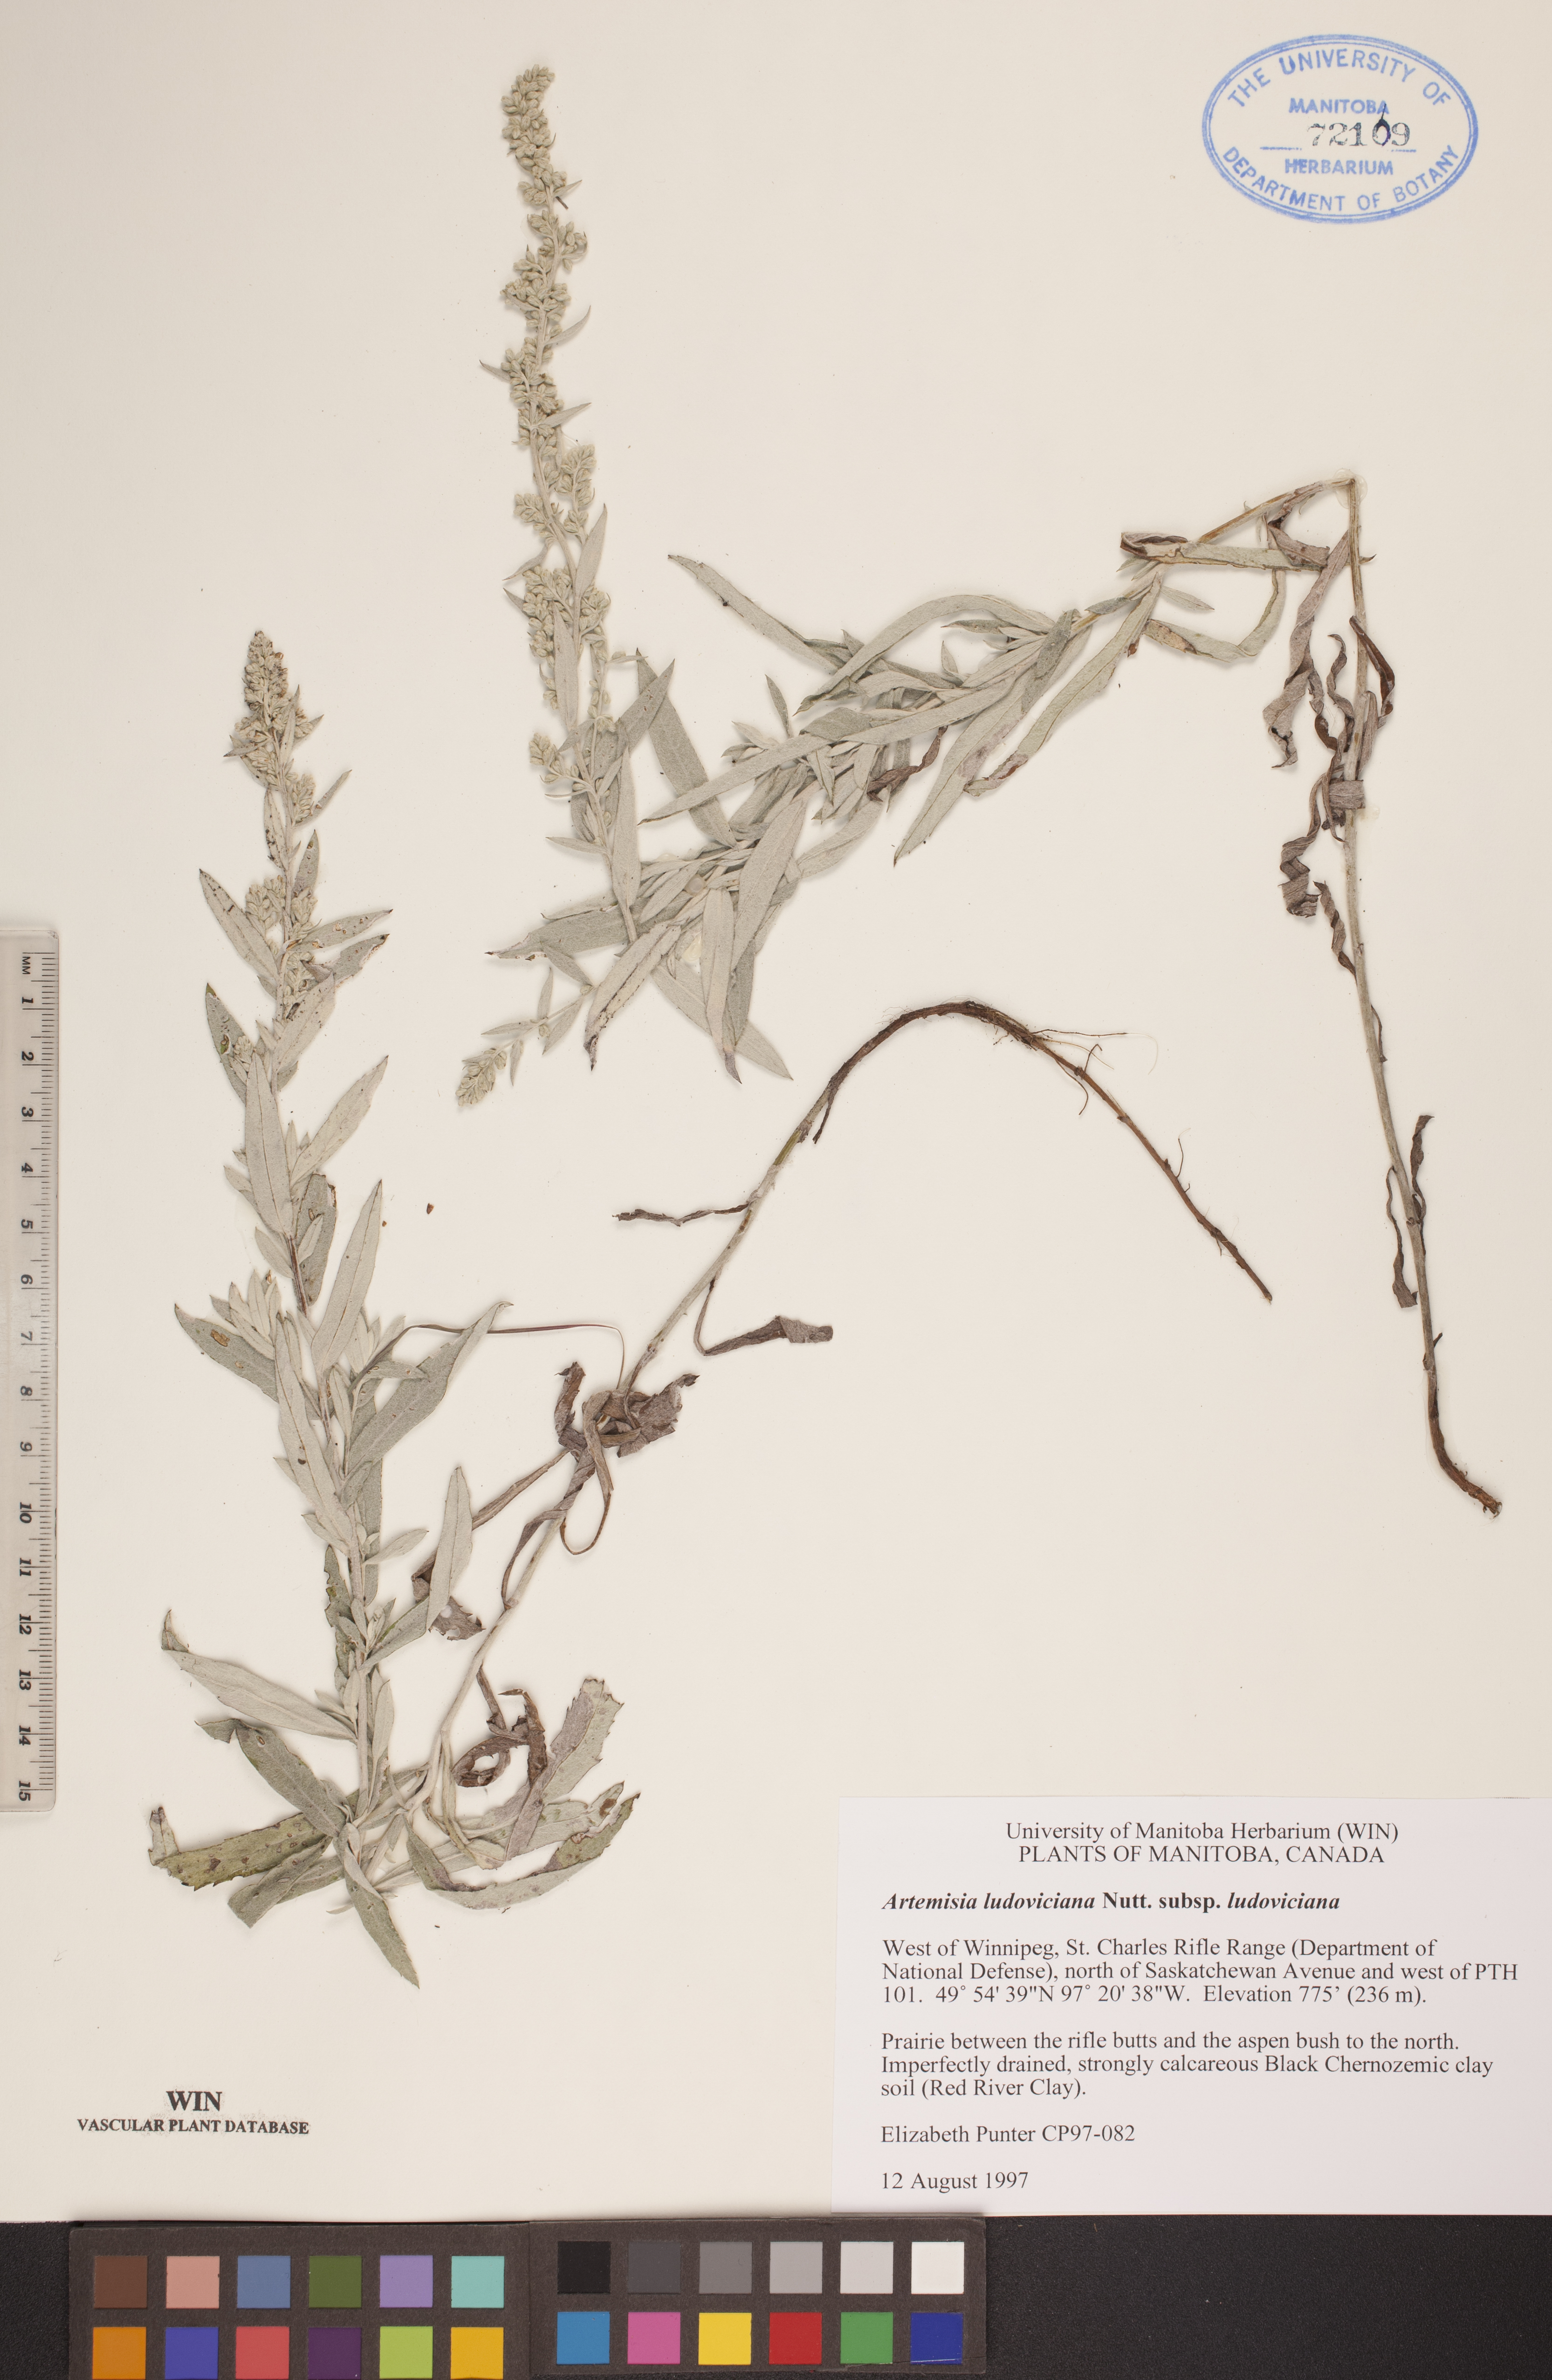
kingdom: Plantae
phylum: Tracheophyta
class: Magnoliopsida
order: Asterales
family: Asteraceae
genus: Artemisia
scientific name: Artemisia ludoviciana
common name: Western mugwort
